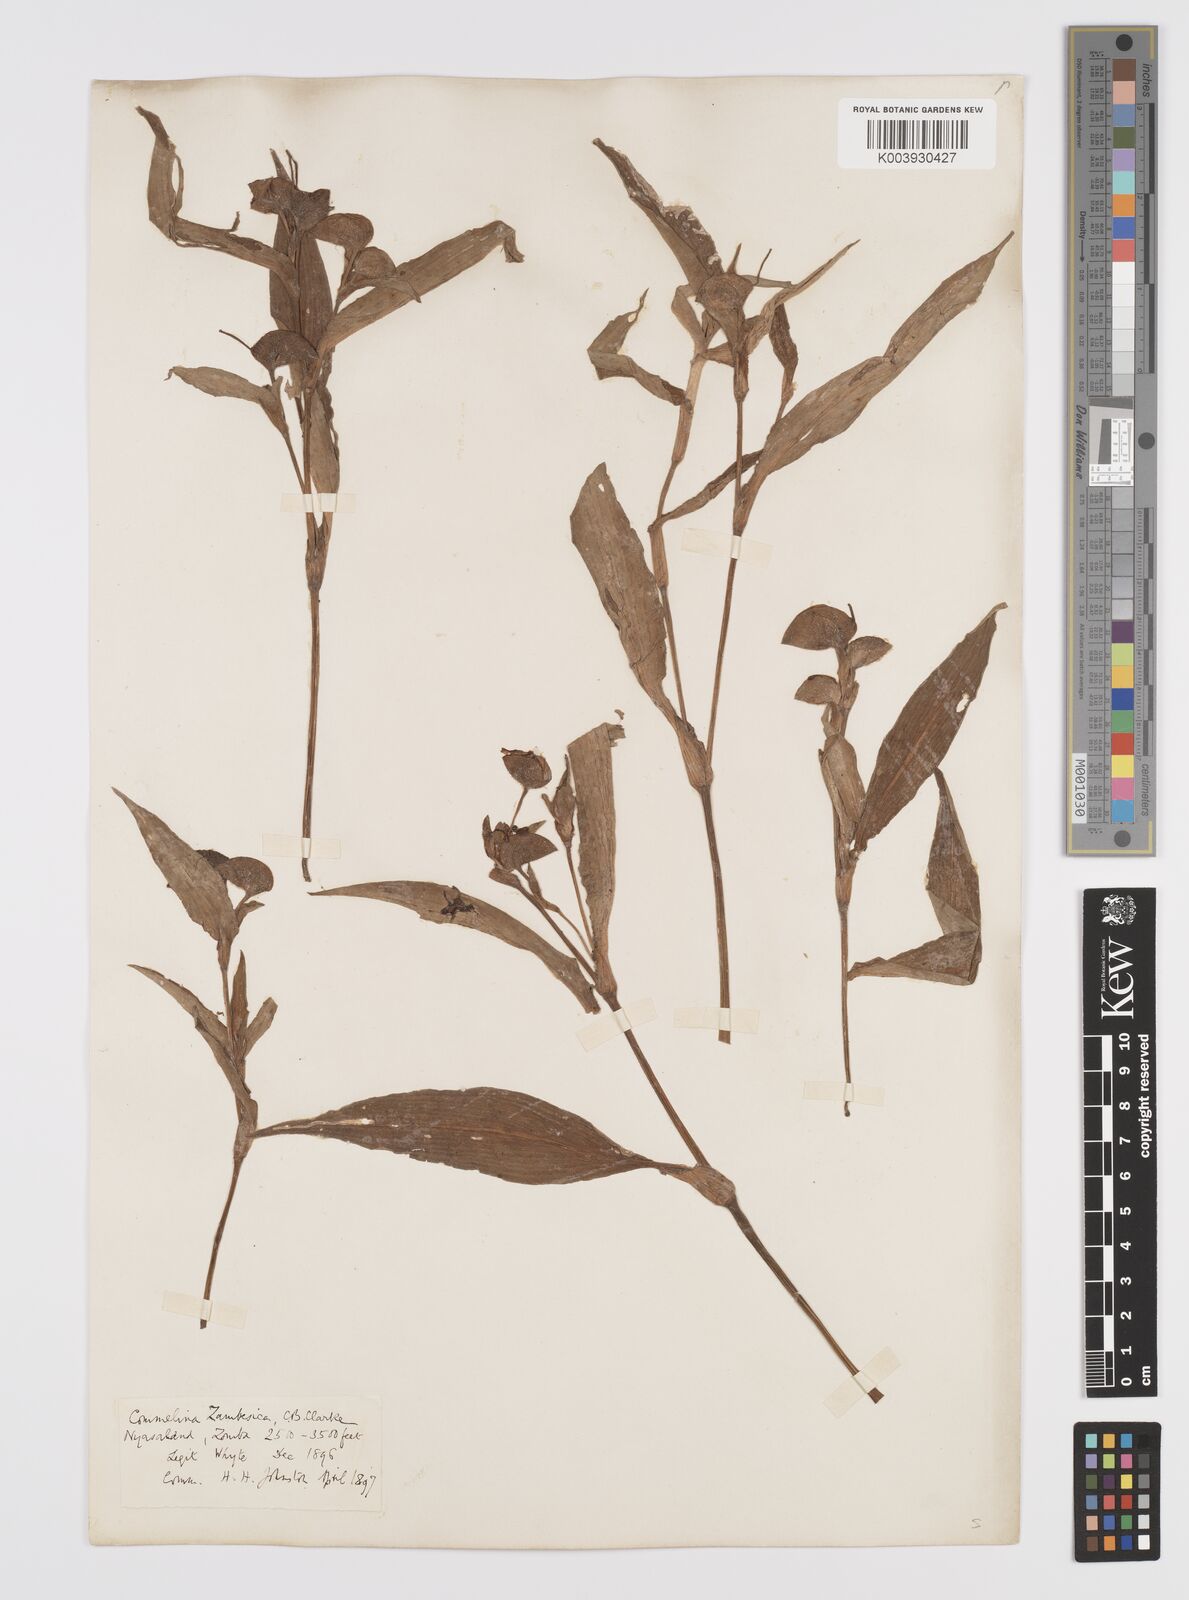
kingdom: Plantae
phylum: Tracheophyta
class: Liliopsida
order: Commelinales
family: Commelinaceae
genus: Commelina
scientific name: Commelina zambesica
